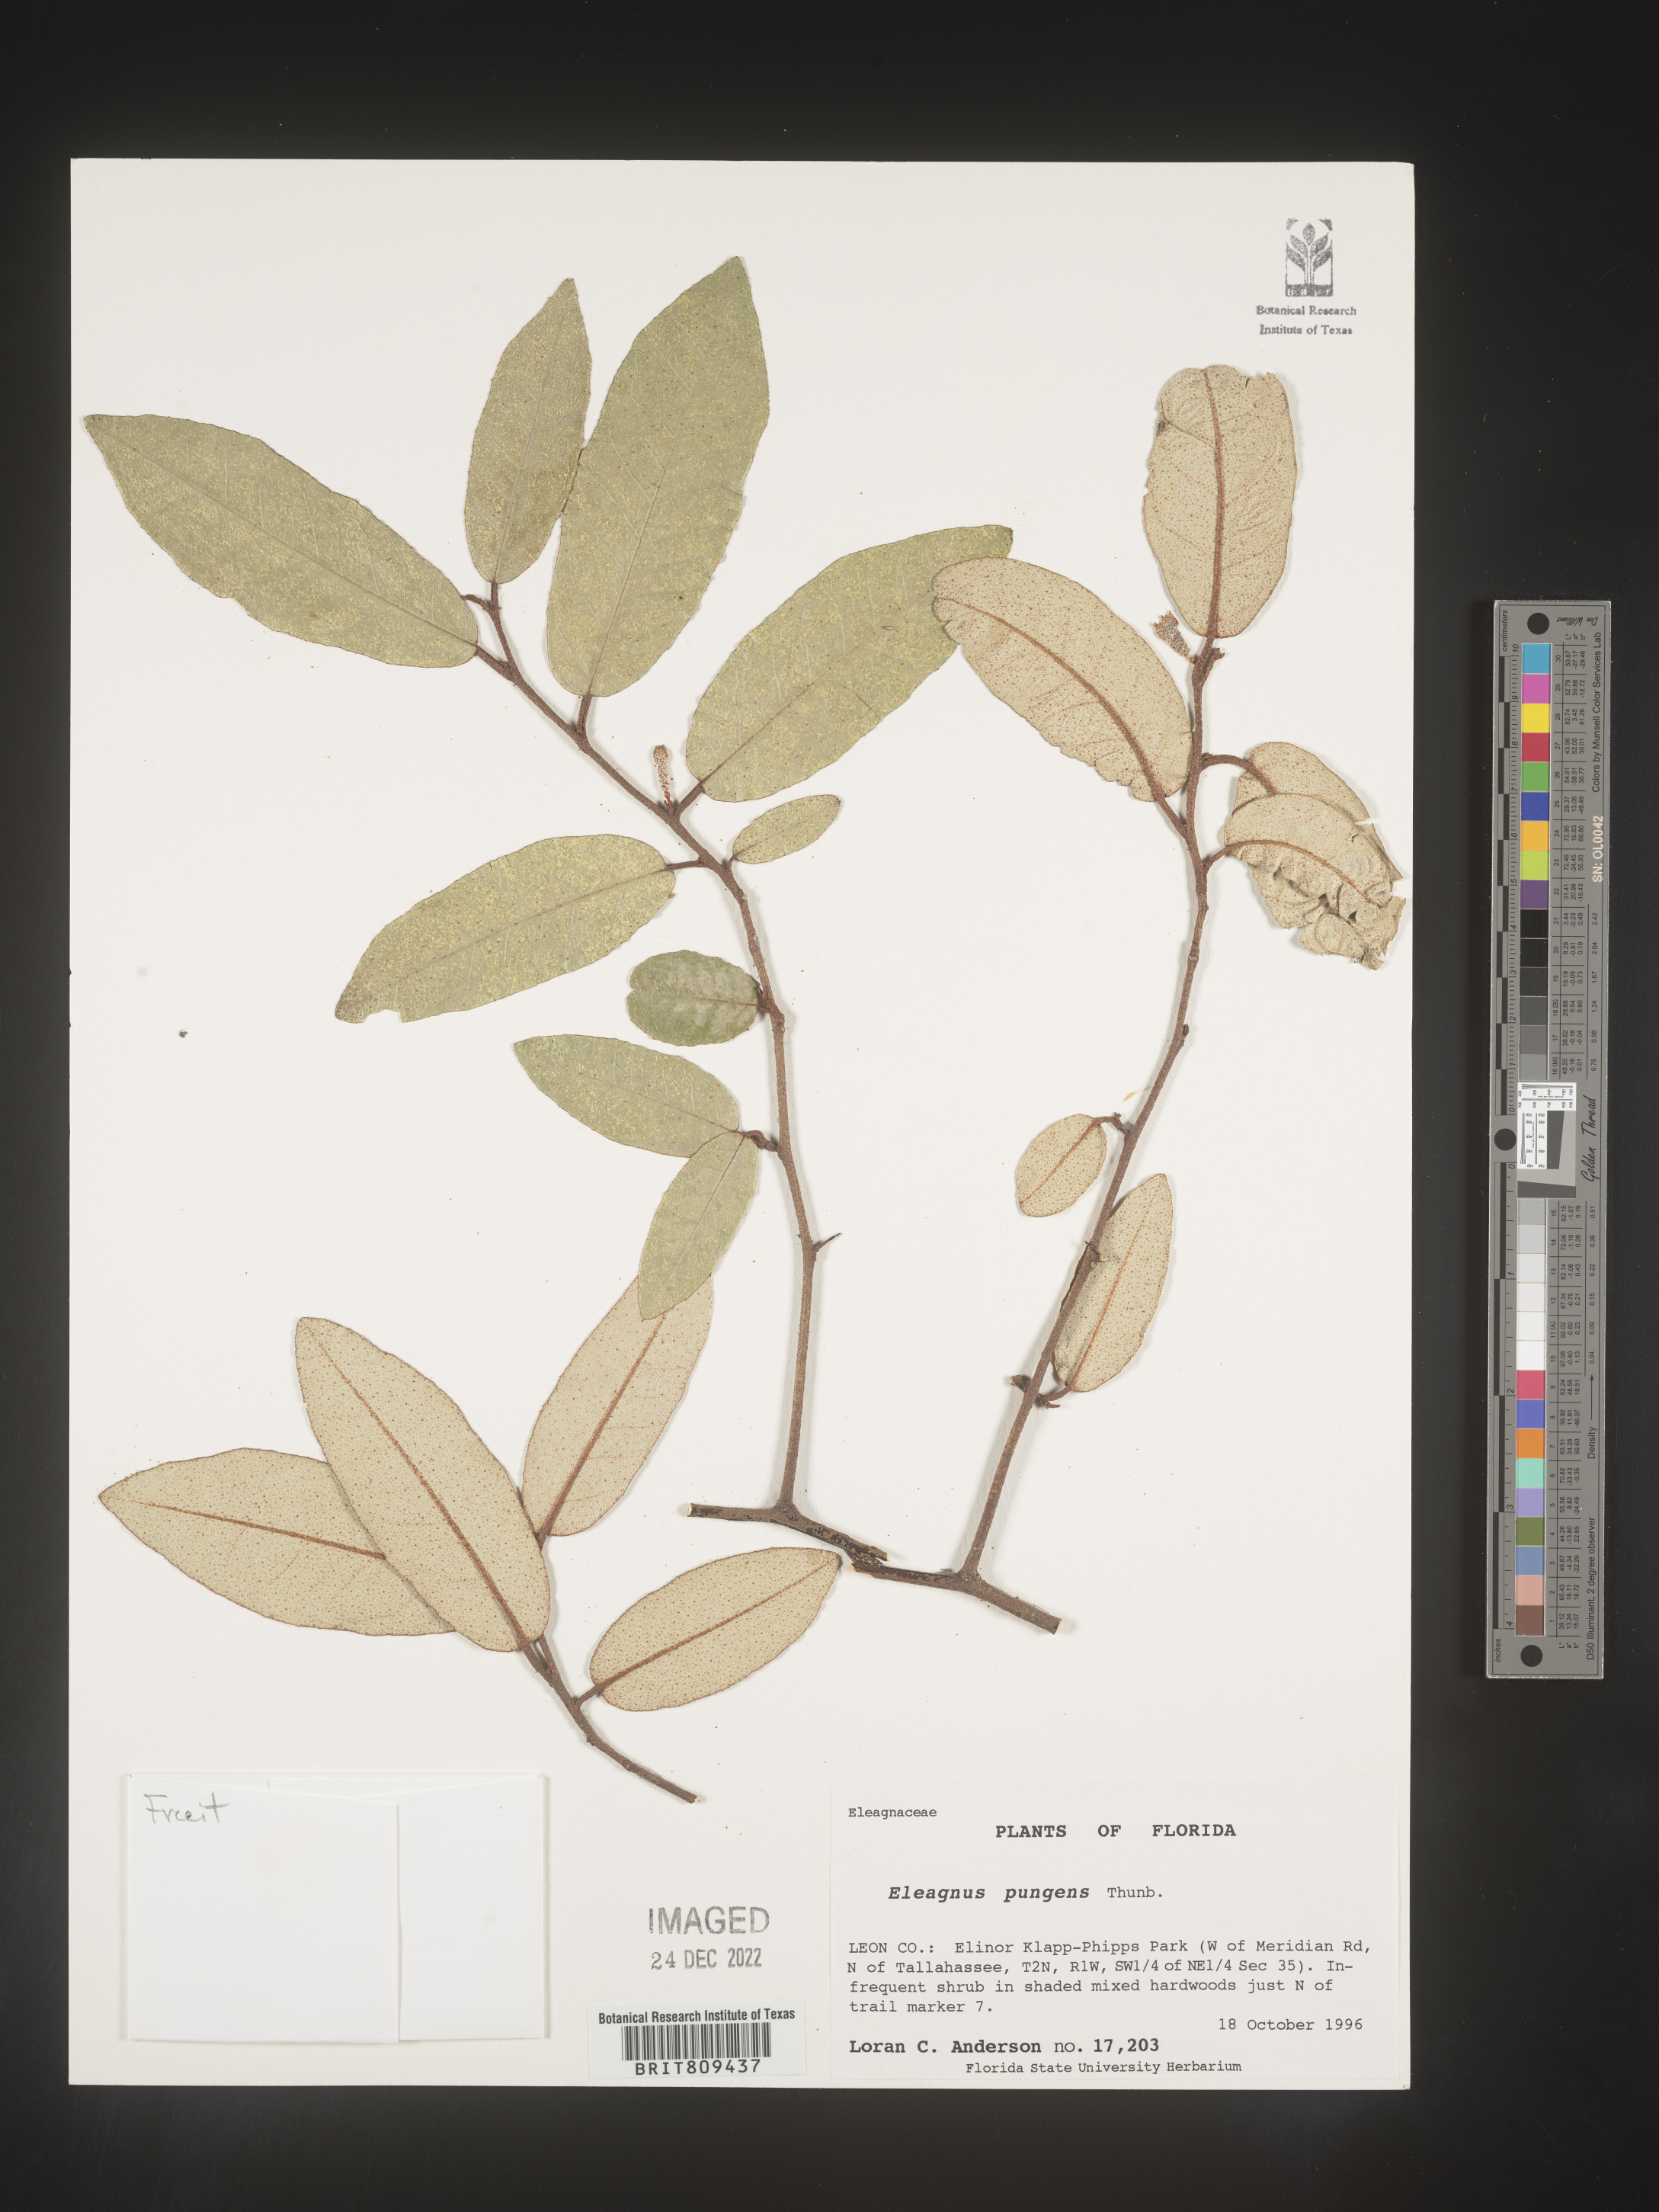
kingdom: Plantae
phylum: Tracheophyta
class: Magnoliopsida
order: Rosales
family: Elaeagnaceae
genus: Elaeagnus
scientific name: Elaeagnus
